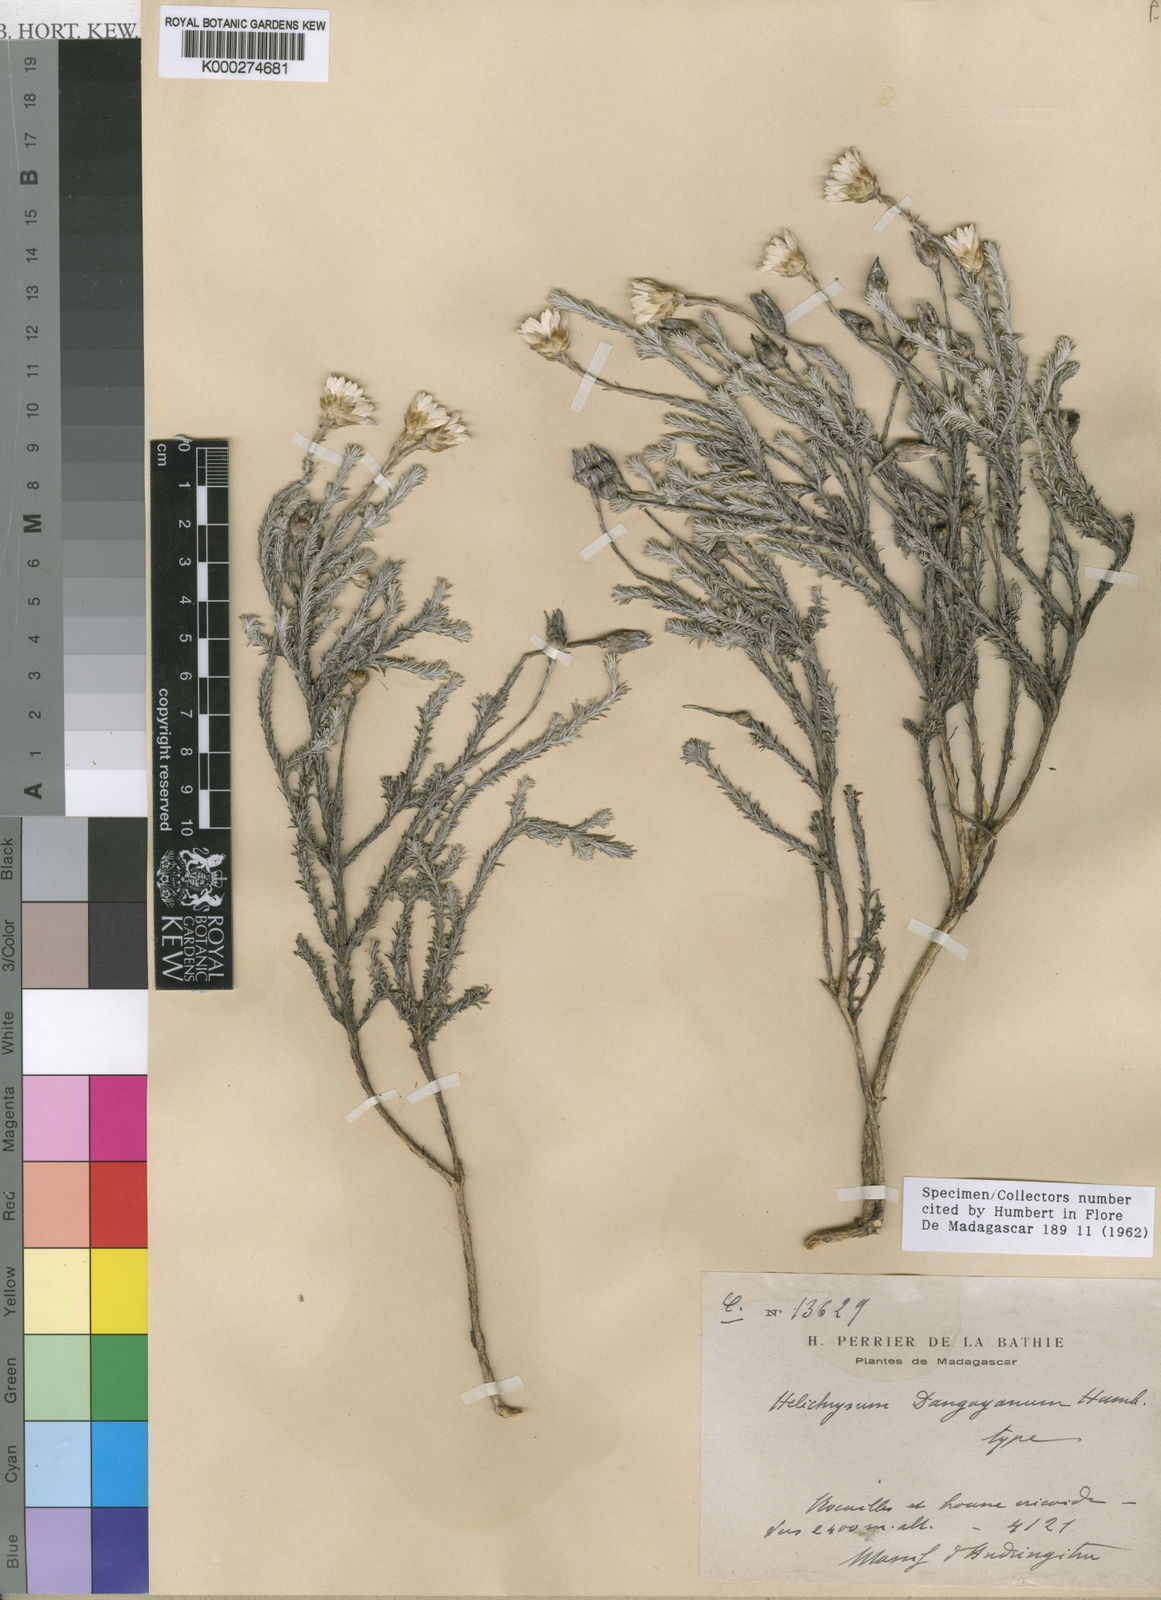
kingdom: Plantae
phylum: Tracheophyta
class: Magnoliopsida
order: Asterales
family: Asteraceae
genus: Helichrysum
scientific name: Helichrysum danguyanum
